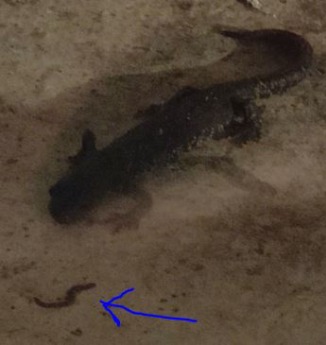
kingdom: Animalia
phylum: Chordata
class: Amphibia
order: Caudata
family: Salamandridae
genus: Triturus
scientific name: Triturus cristatus
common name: Stor vandsalamander
